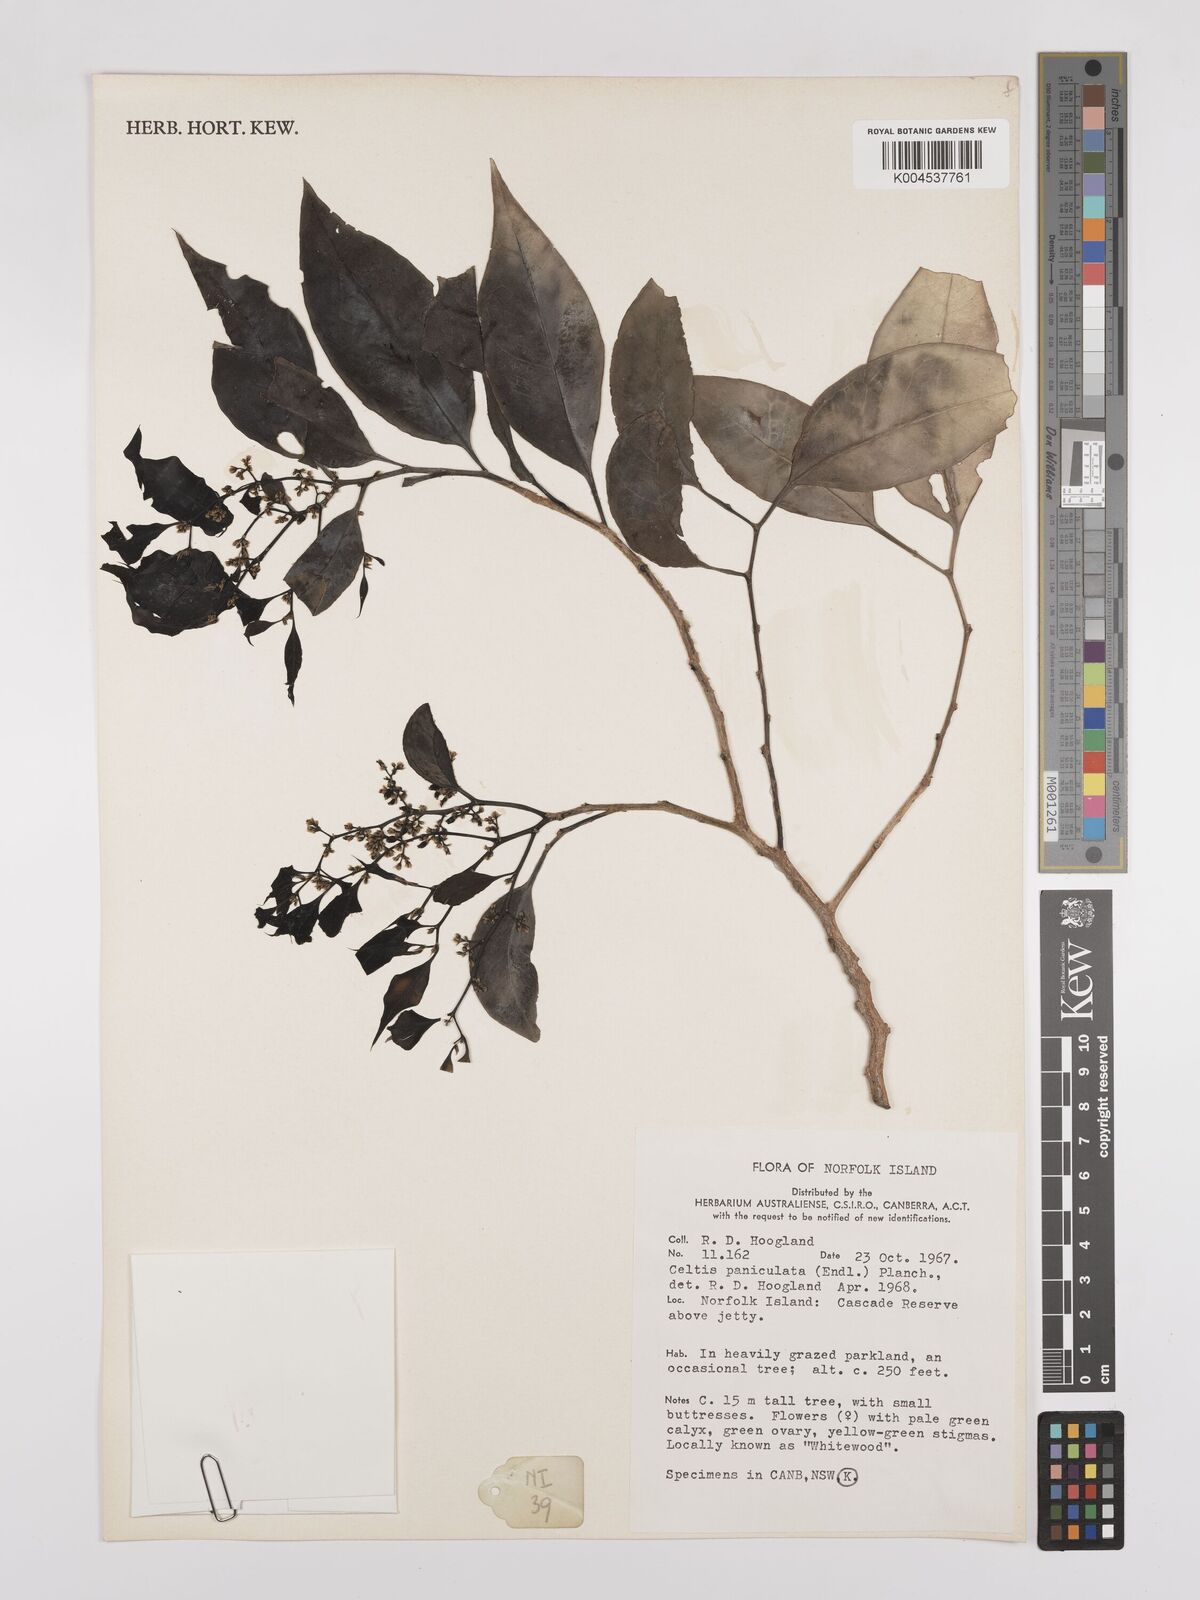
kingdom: Plantae
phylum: Tracheophyta
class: Magnoliopsida
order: Rosales
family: Cannabaceae
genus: Celtis
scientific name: Celtis paniculata
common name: Silky celtis
